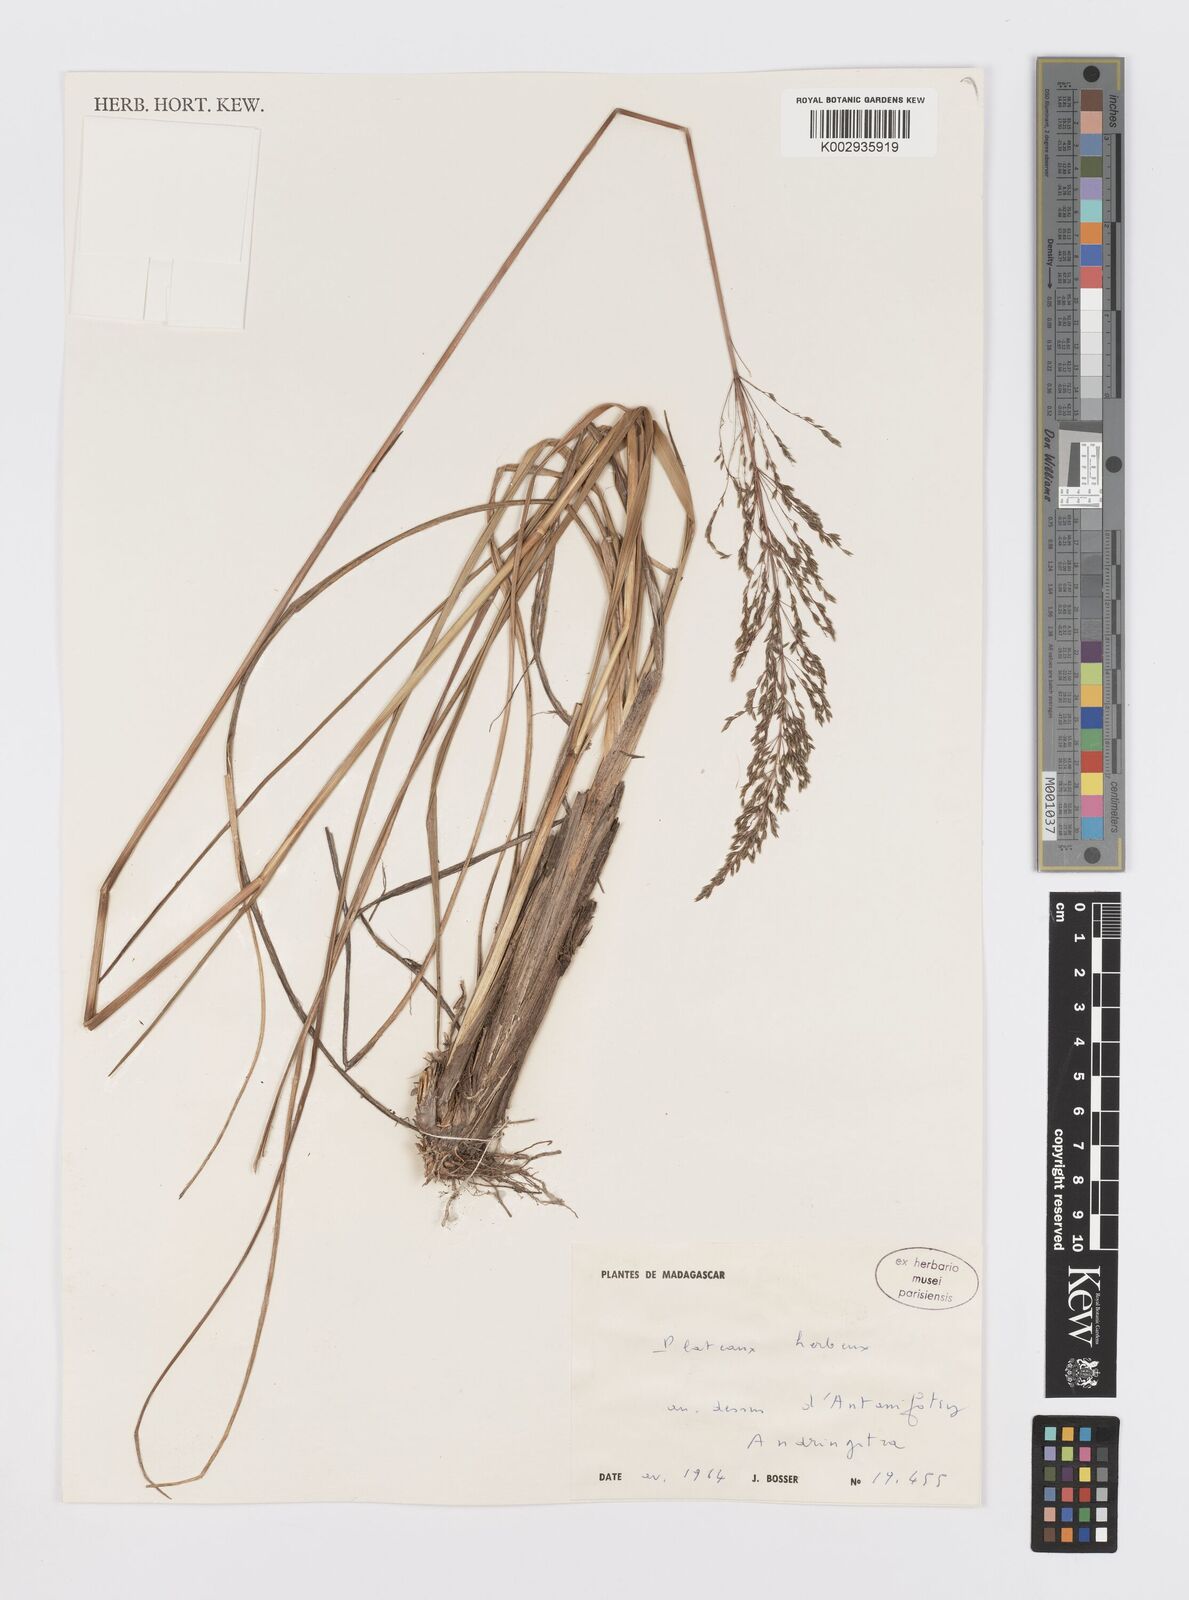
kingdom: Plantae
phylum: Tracheophyta
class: Liliopsida
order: Poales
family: Poaceae
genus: Sporobolus
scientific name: Sporobolus subulatus
